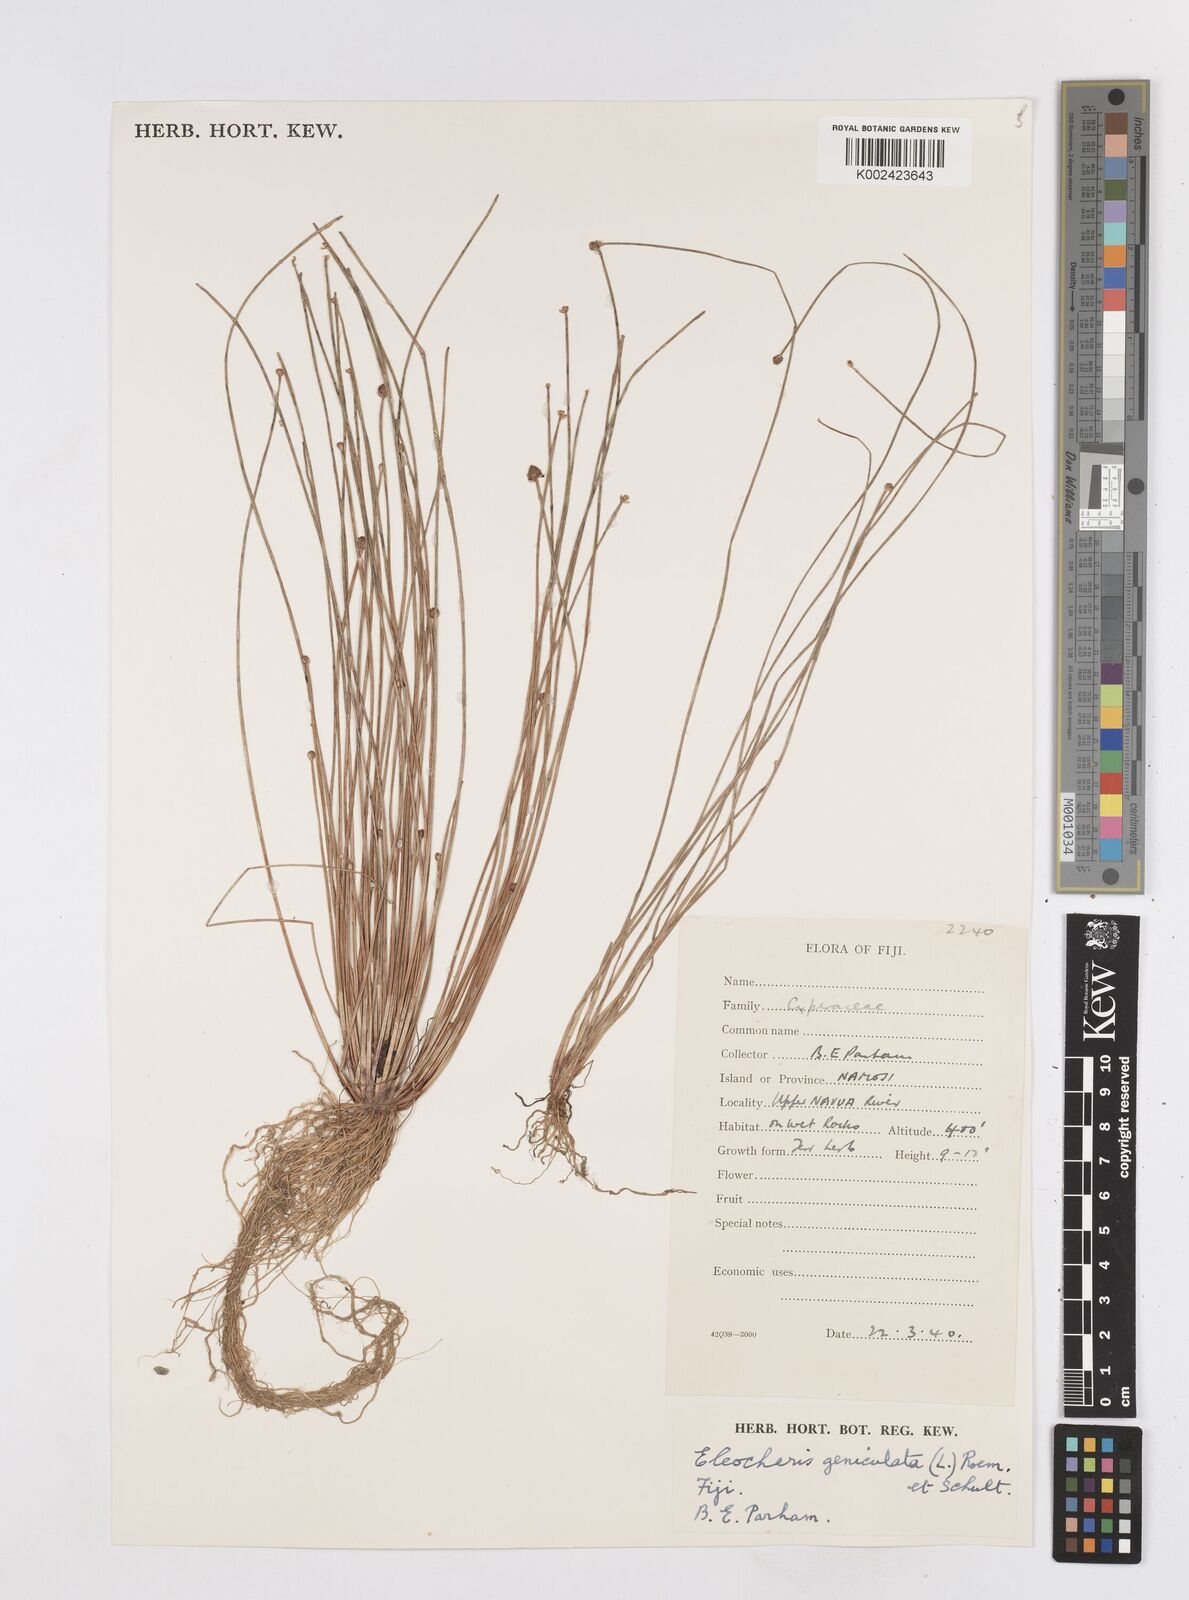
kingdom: Plantae
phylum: Tracheophyta
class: Liliopsida
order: Poales
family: Cyperaceae
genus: Eleocharis
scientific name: Eleocharis geniculata
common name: Canada spikesedge
